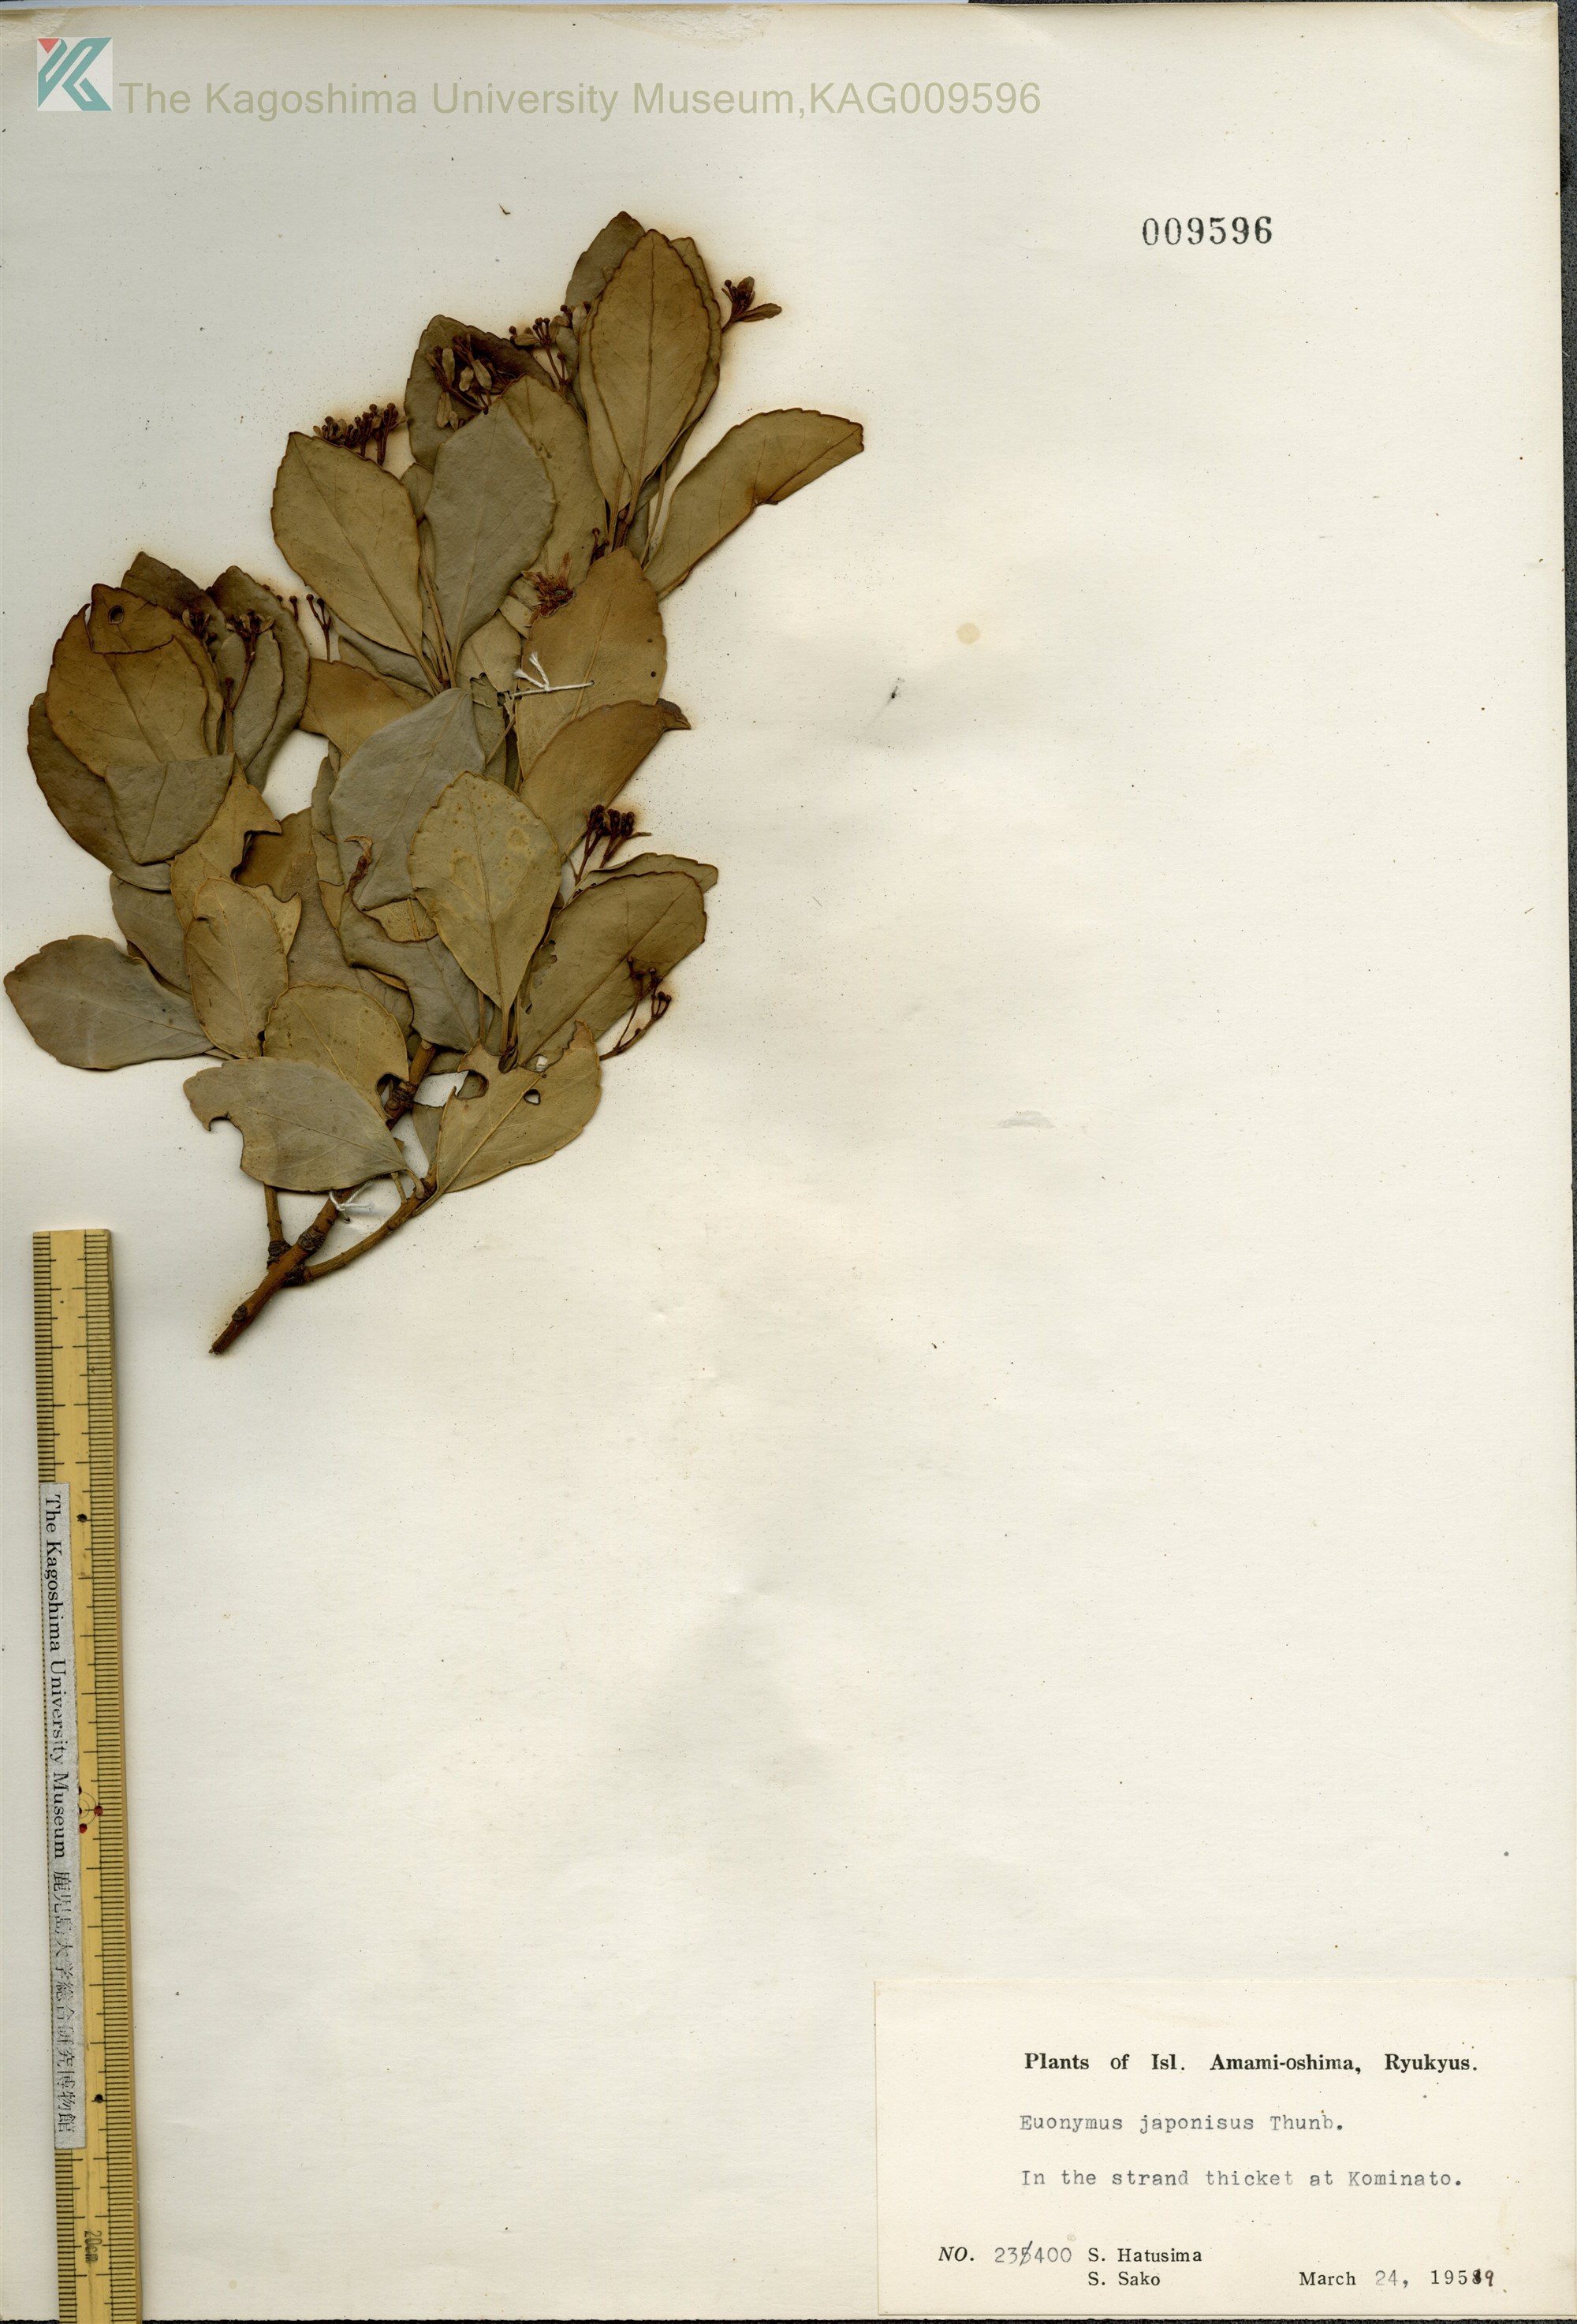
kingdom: Plantae
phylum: Tracheophyta
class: Magnoliopsida
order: Celastrales
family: Celastraceae
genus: Euonymus
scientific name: Euonymus japonicus
